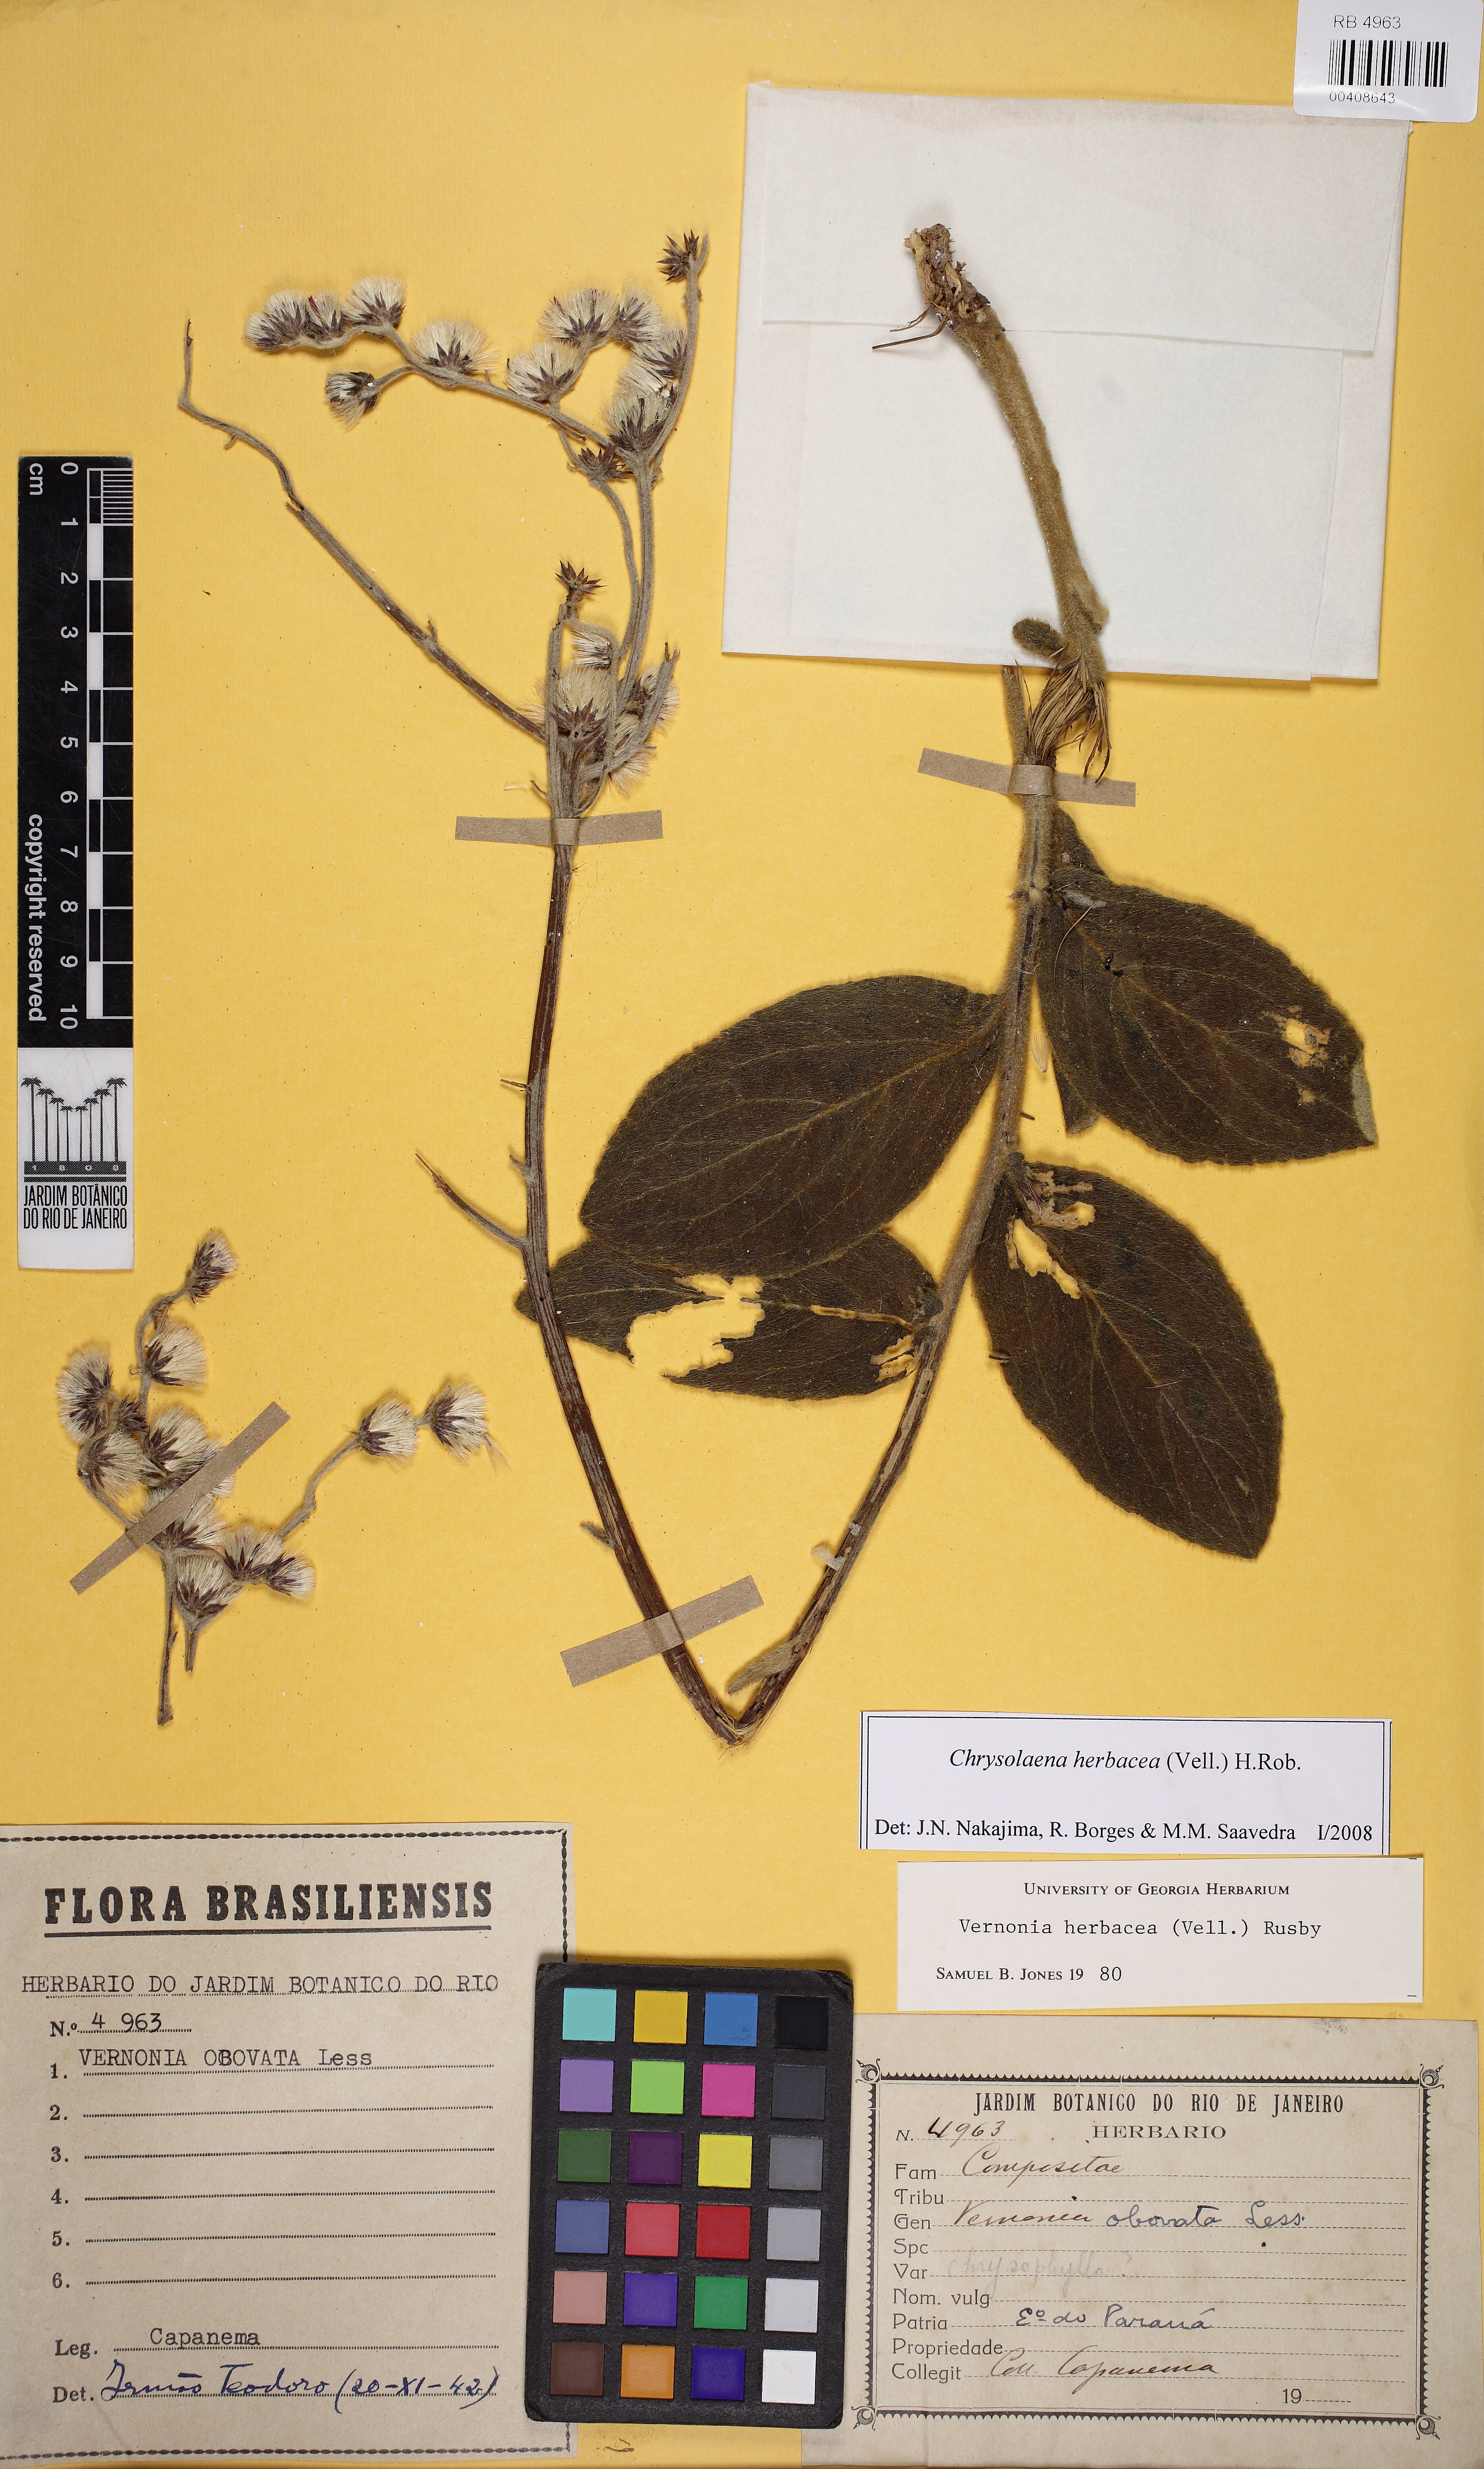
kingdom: Plantae
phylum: Tracheophyta
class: Magnoliopsida
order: Asterales
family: Asteraceae
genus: Chrysolaena
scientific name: Chrysolaena obovata
